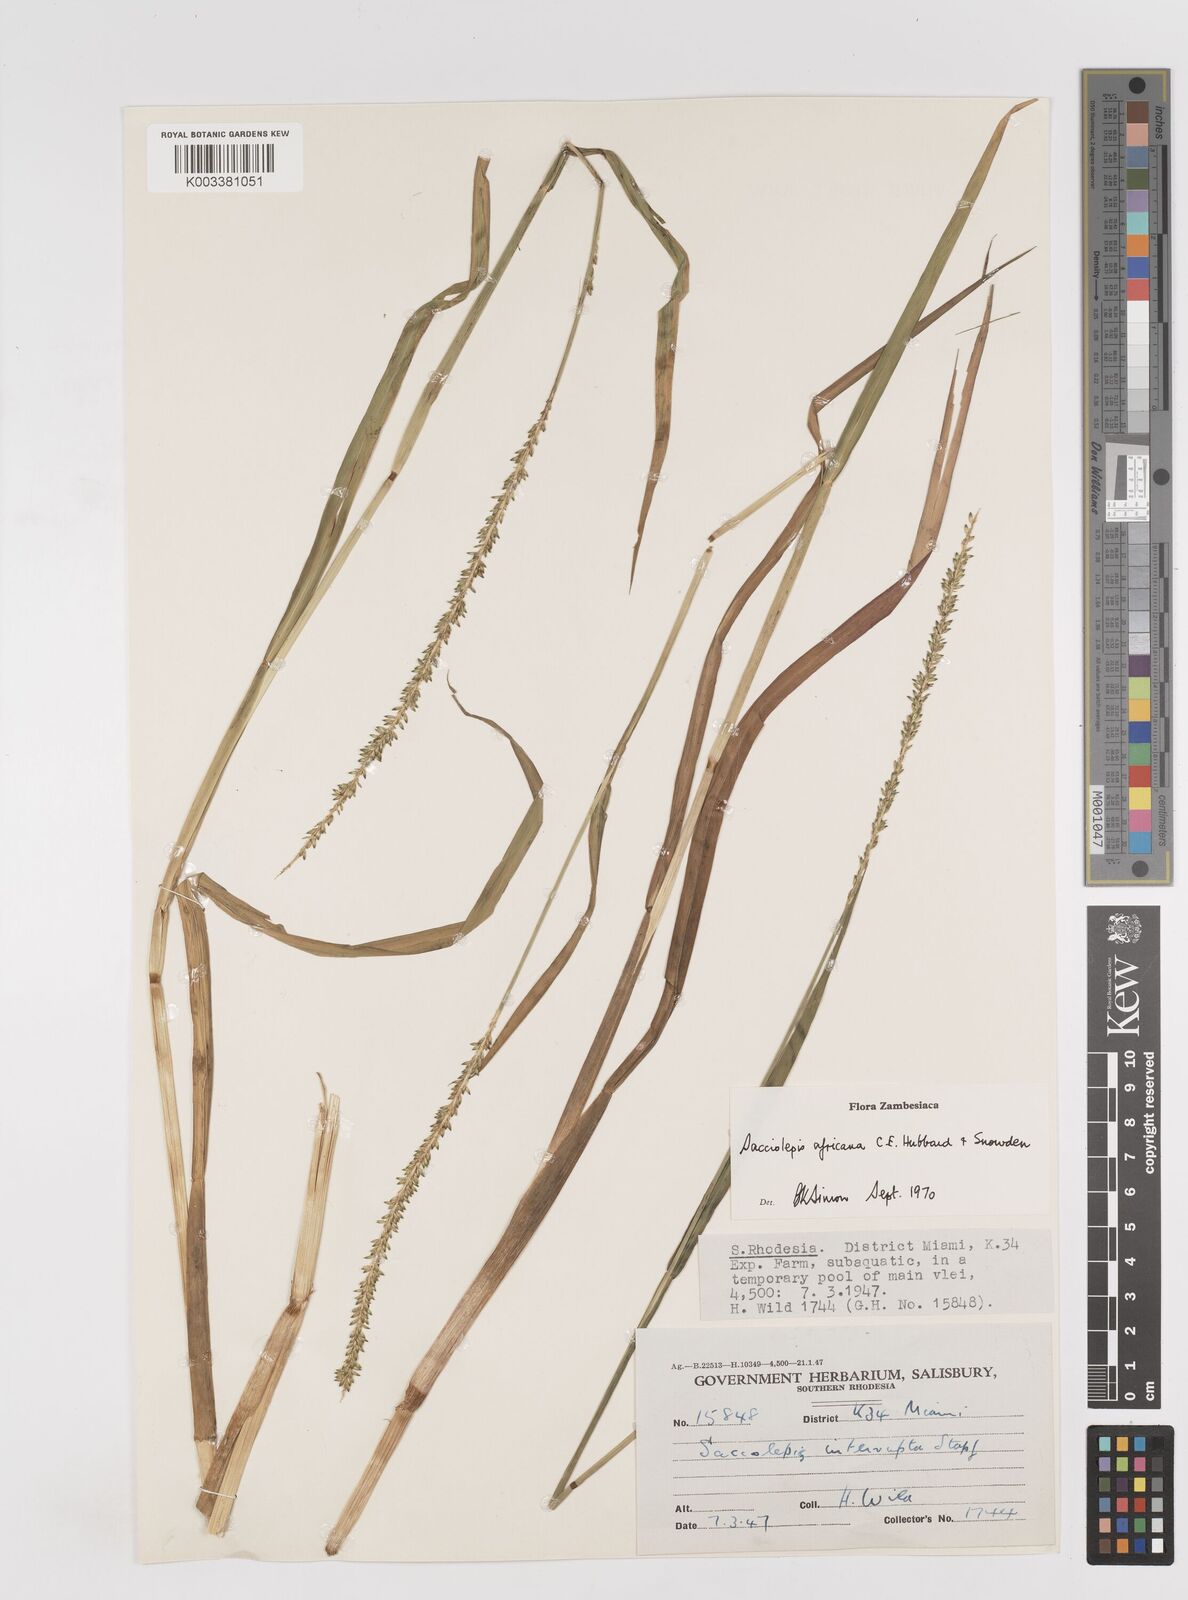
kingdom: Plantae
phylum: Tracheophyta
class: Liliopsida
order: Poales
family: Poaceae
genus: Sacciolepis
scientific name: Sacciolepis africana
